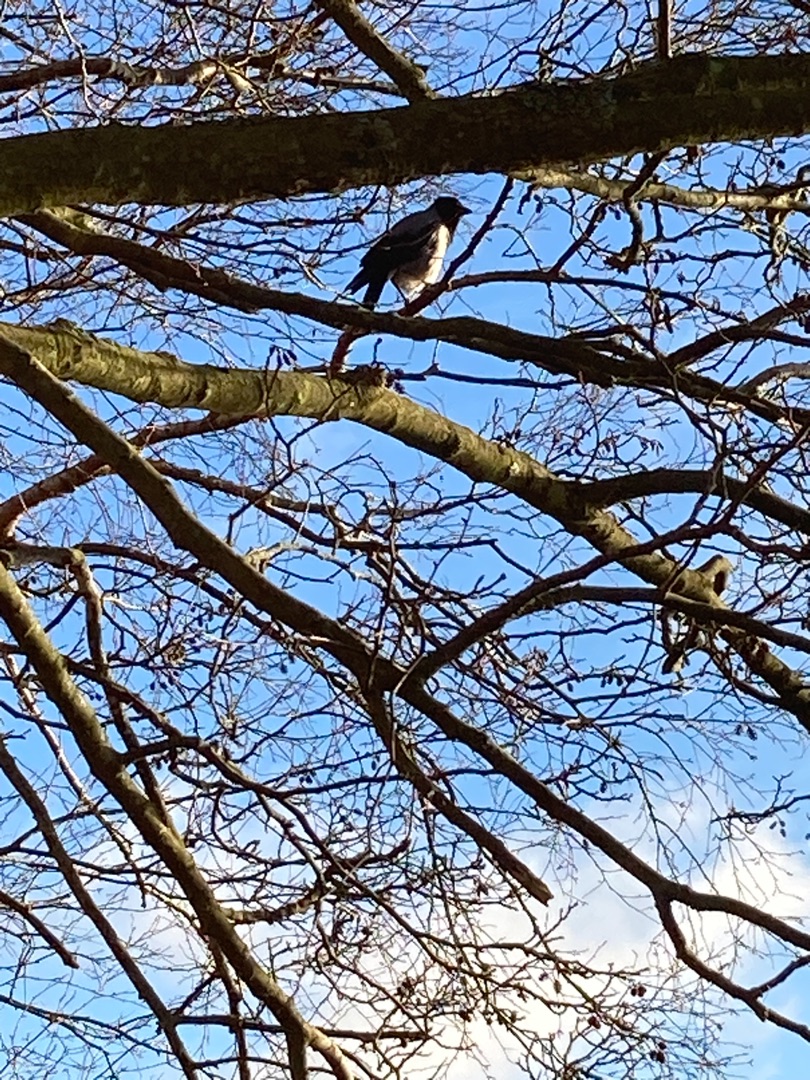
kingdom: Animalia
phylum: Chordata
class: Aves
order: Passeriformes
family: Corvidae
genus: Corvus
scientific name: Corvus cornix
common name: Gråkrage
